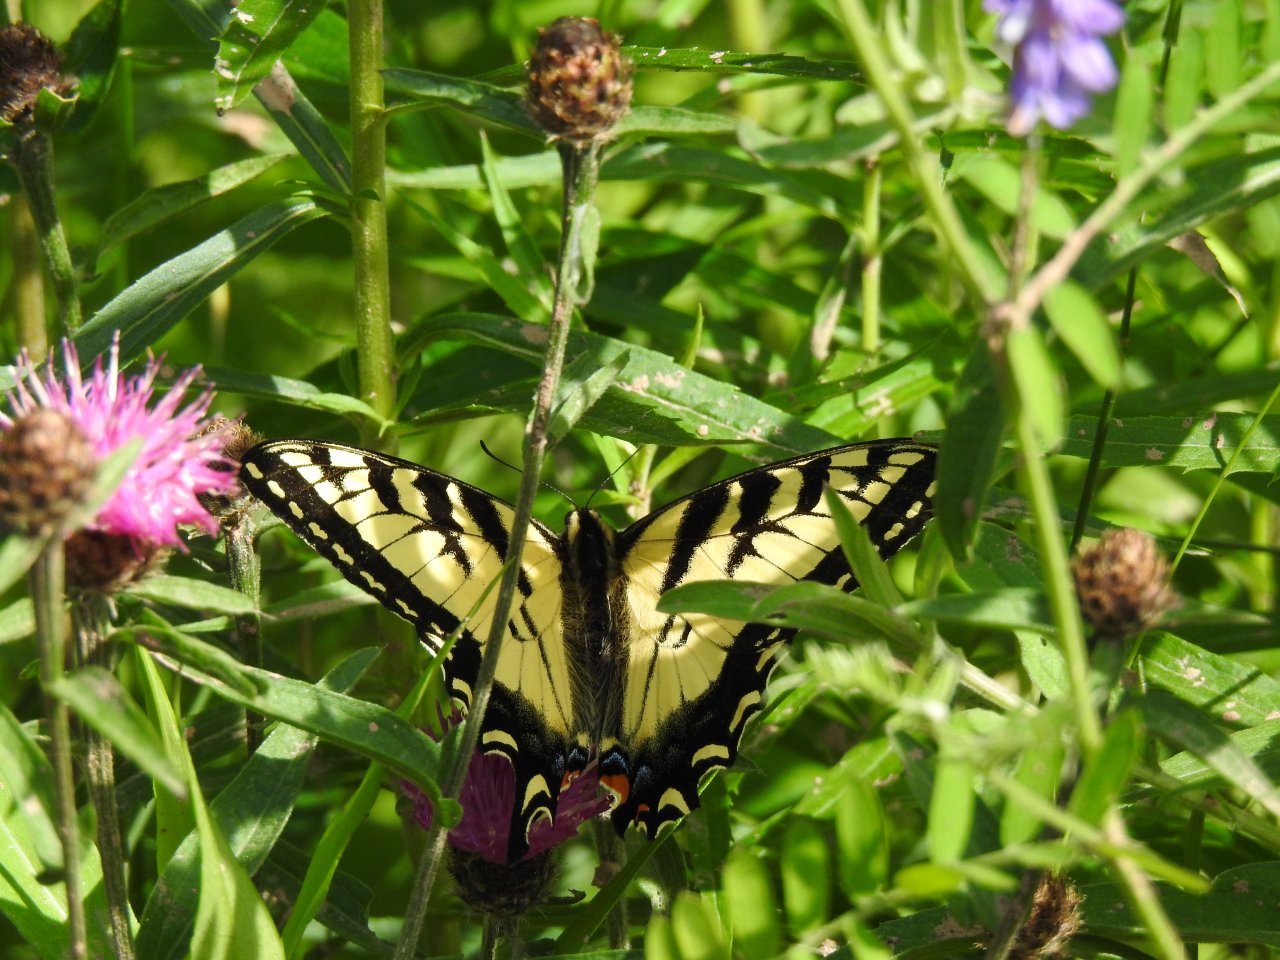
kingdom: Animalia
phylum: Arthropoda
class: Insecta
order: Lepidoptera
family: Papilionidae
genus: Pterourus
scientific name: Pterourus canadensis
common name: Canadian Tiger Swallowtail
